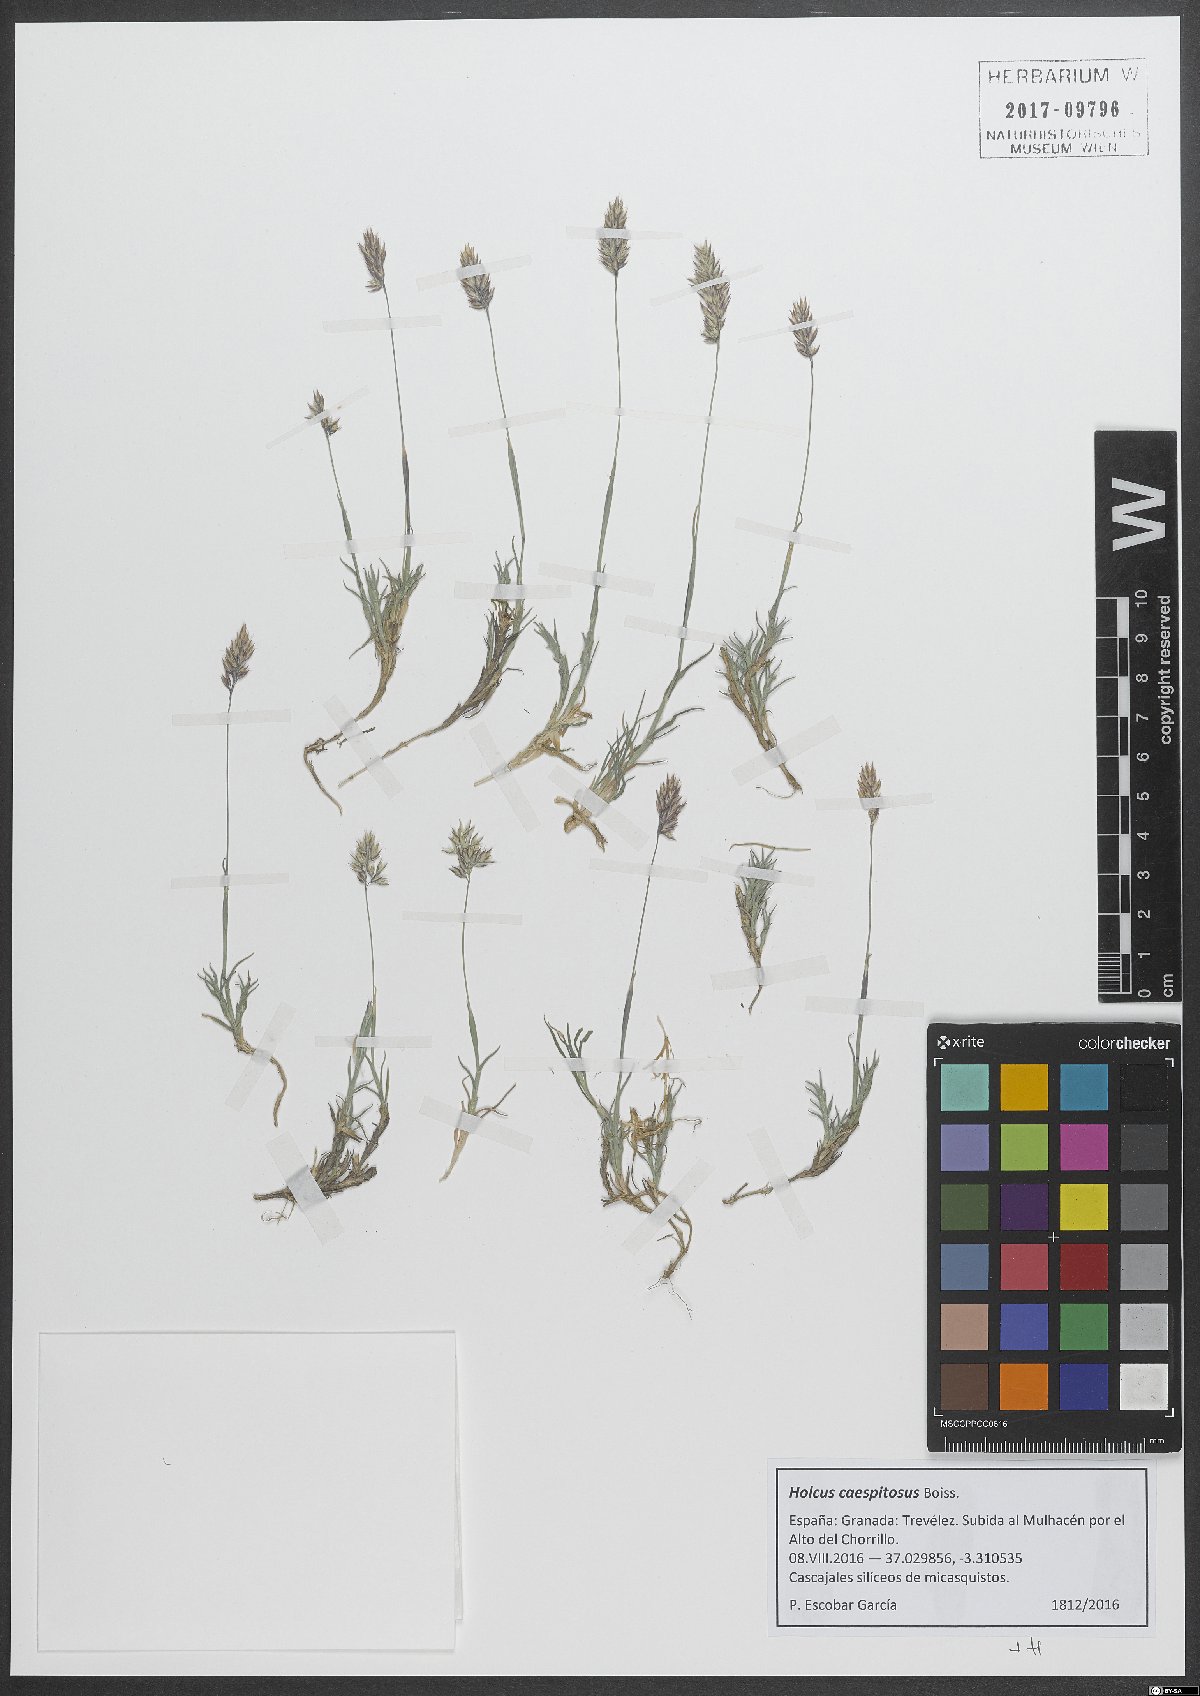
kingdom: Plantae
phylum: Tracheophyta
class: Liliopsida
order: Poales
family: Poaceae
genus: Holcus
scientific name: Holcus caespitosus
